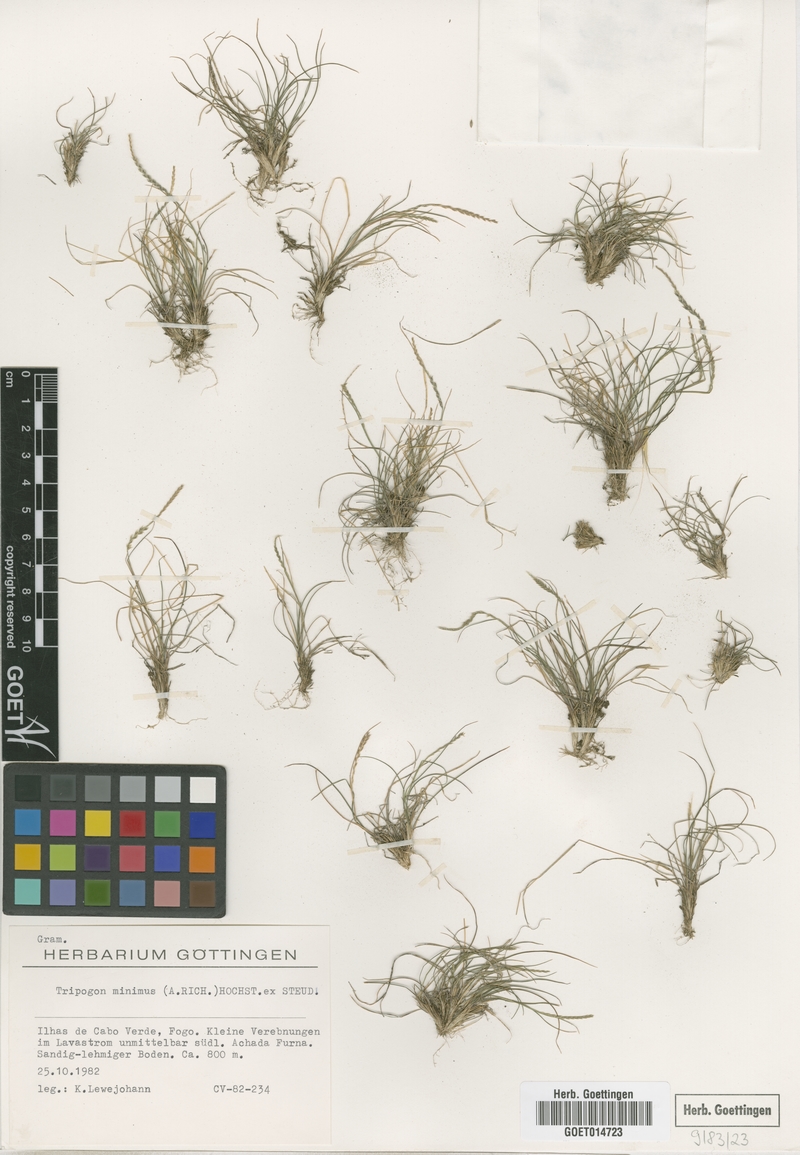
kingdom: Plantae
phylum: Tracheophyta
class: Liliopsida
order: Poales
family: Poaceae
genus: Tripogonella
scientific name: Tripogonella minima
